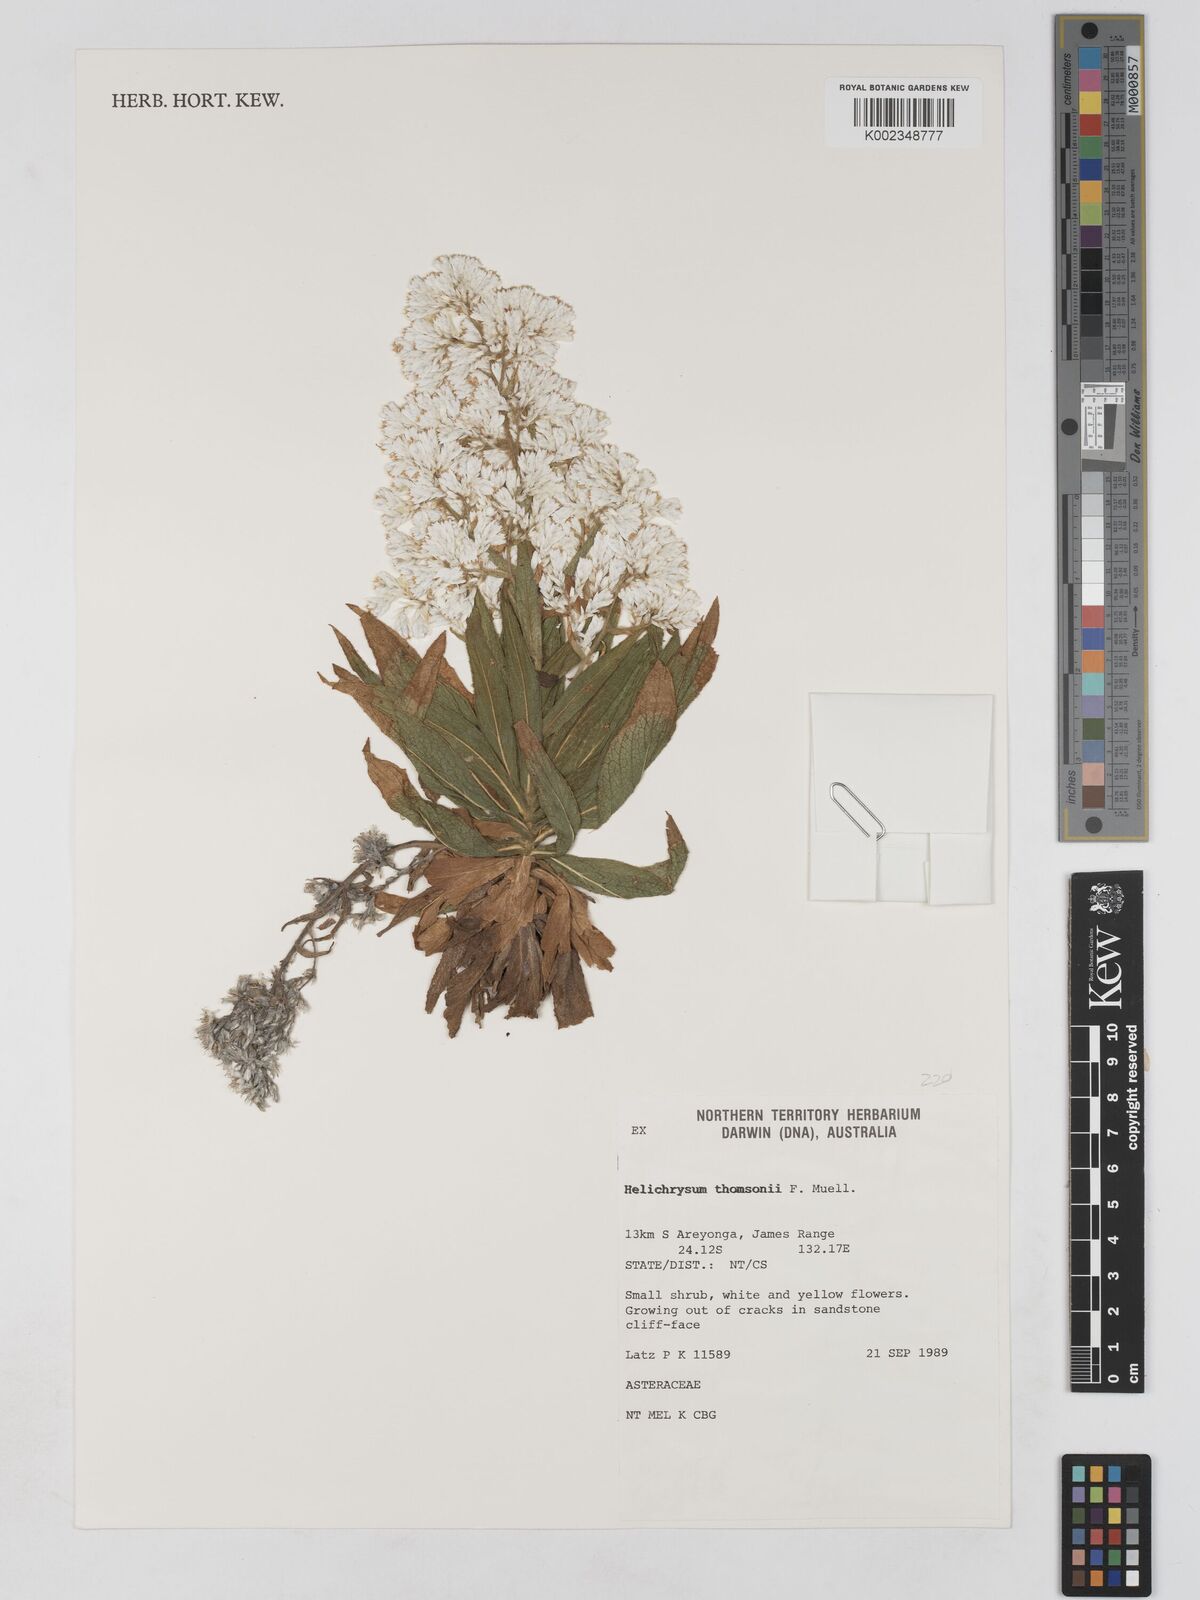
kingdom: Plantae
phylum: Tracheophyta
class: Magnoliopsida
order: Asterales
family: Asteraceae
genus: Cremnothamnus
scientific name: Cremnothamnus thomsonii
